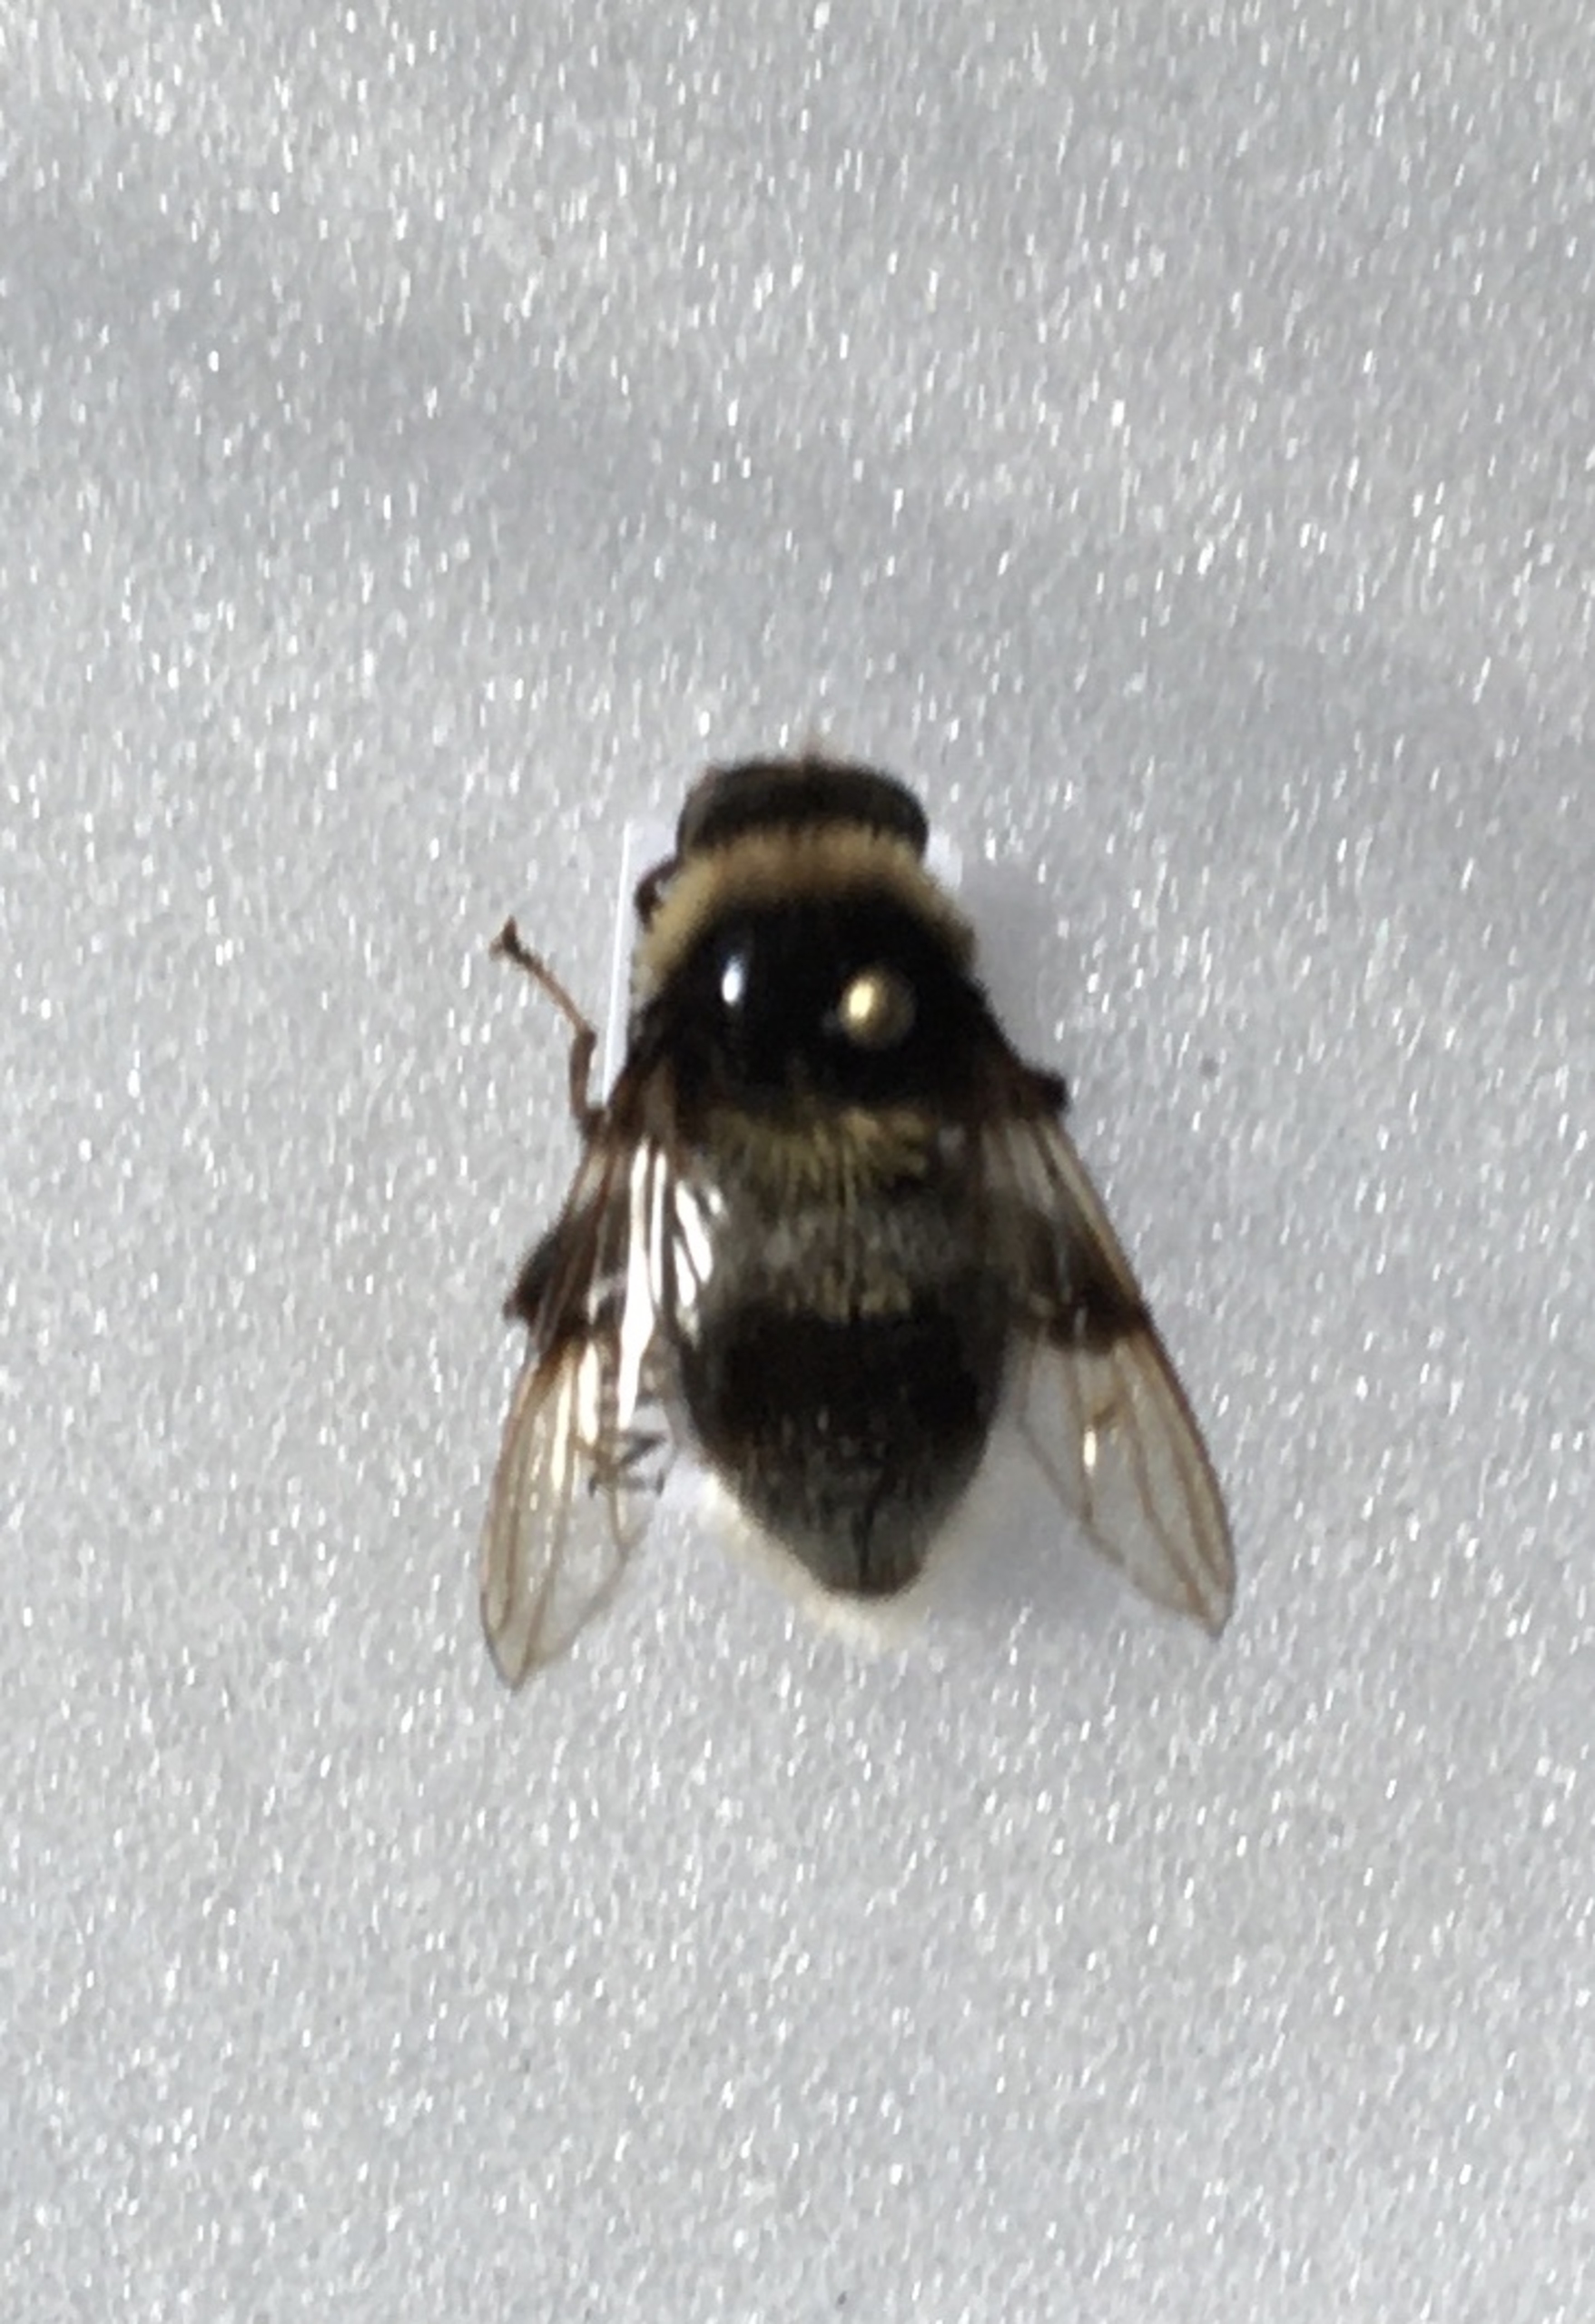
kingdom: Animalia
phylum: Arthropoda
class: Insecta
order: Diptera
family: Syrphidae
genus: Sericomyia
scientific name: Sericomyia bombiformis
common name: Gul bjørnesvirreflue
